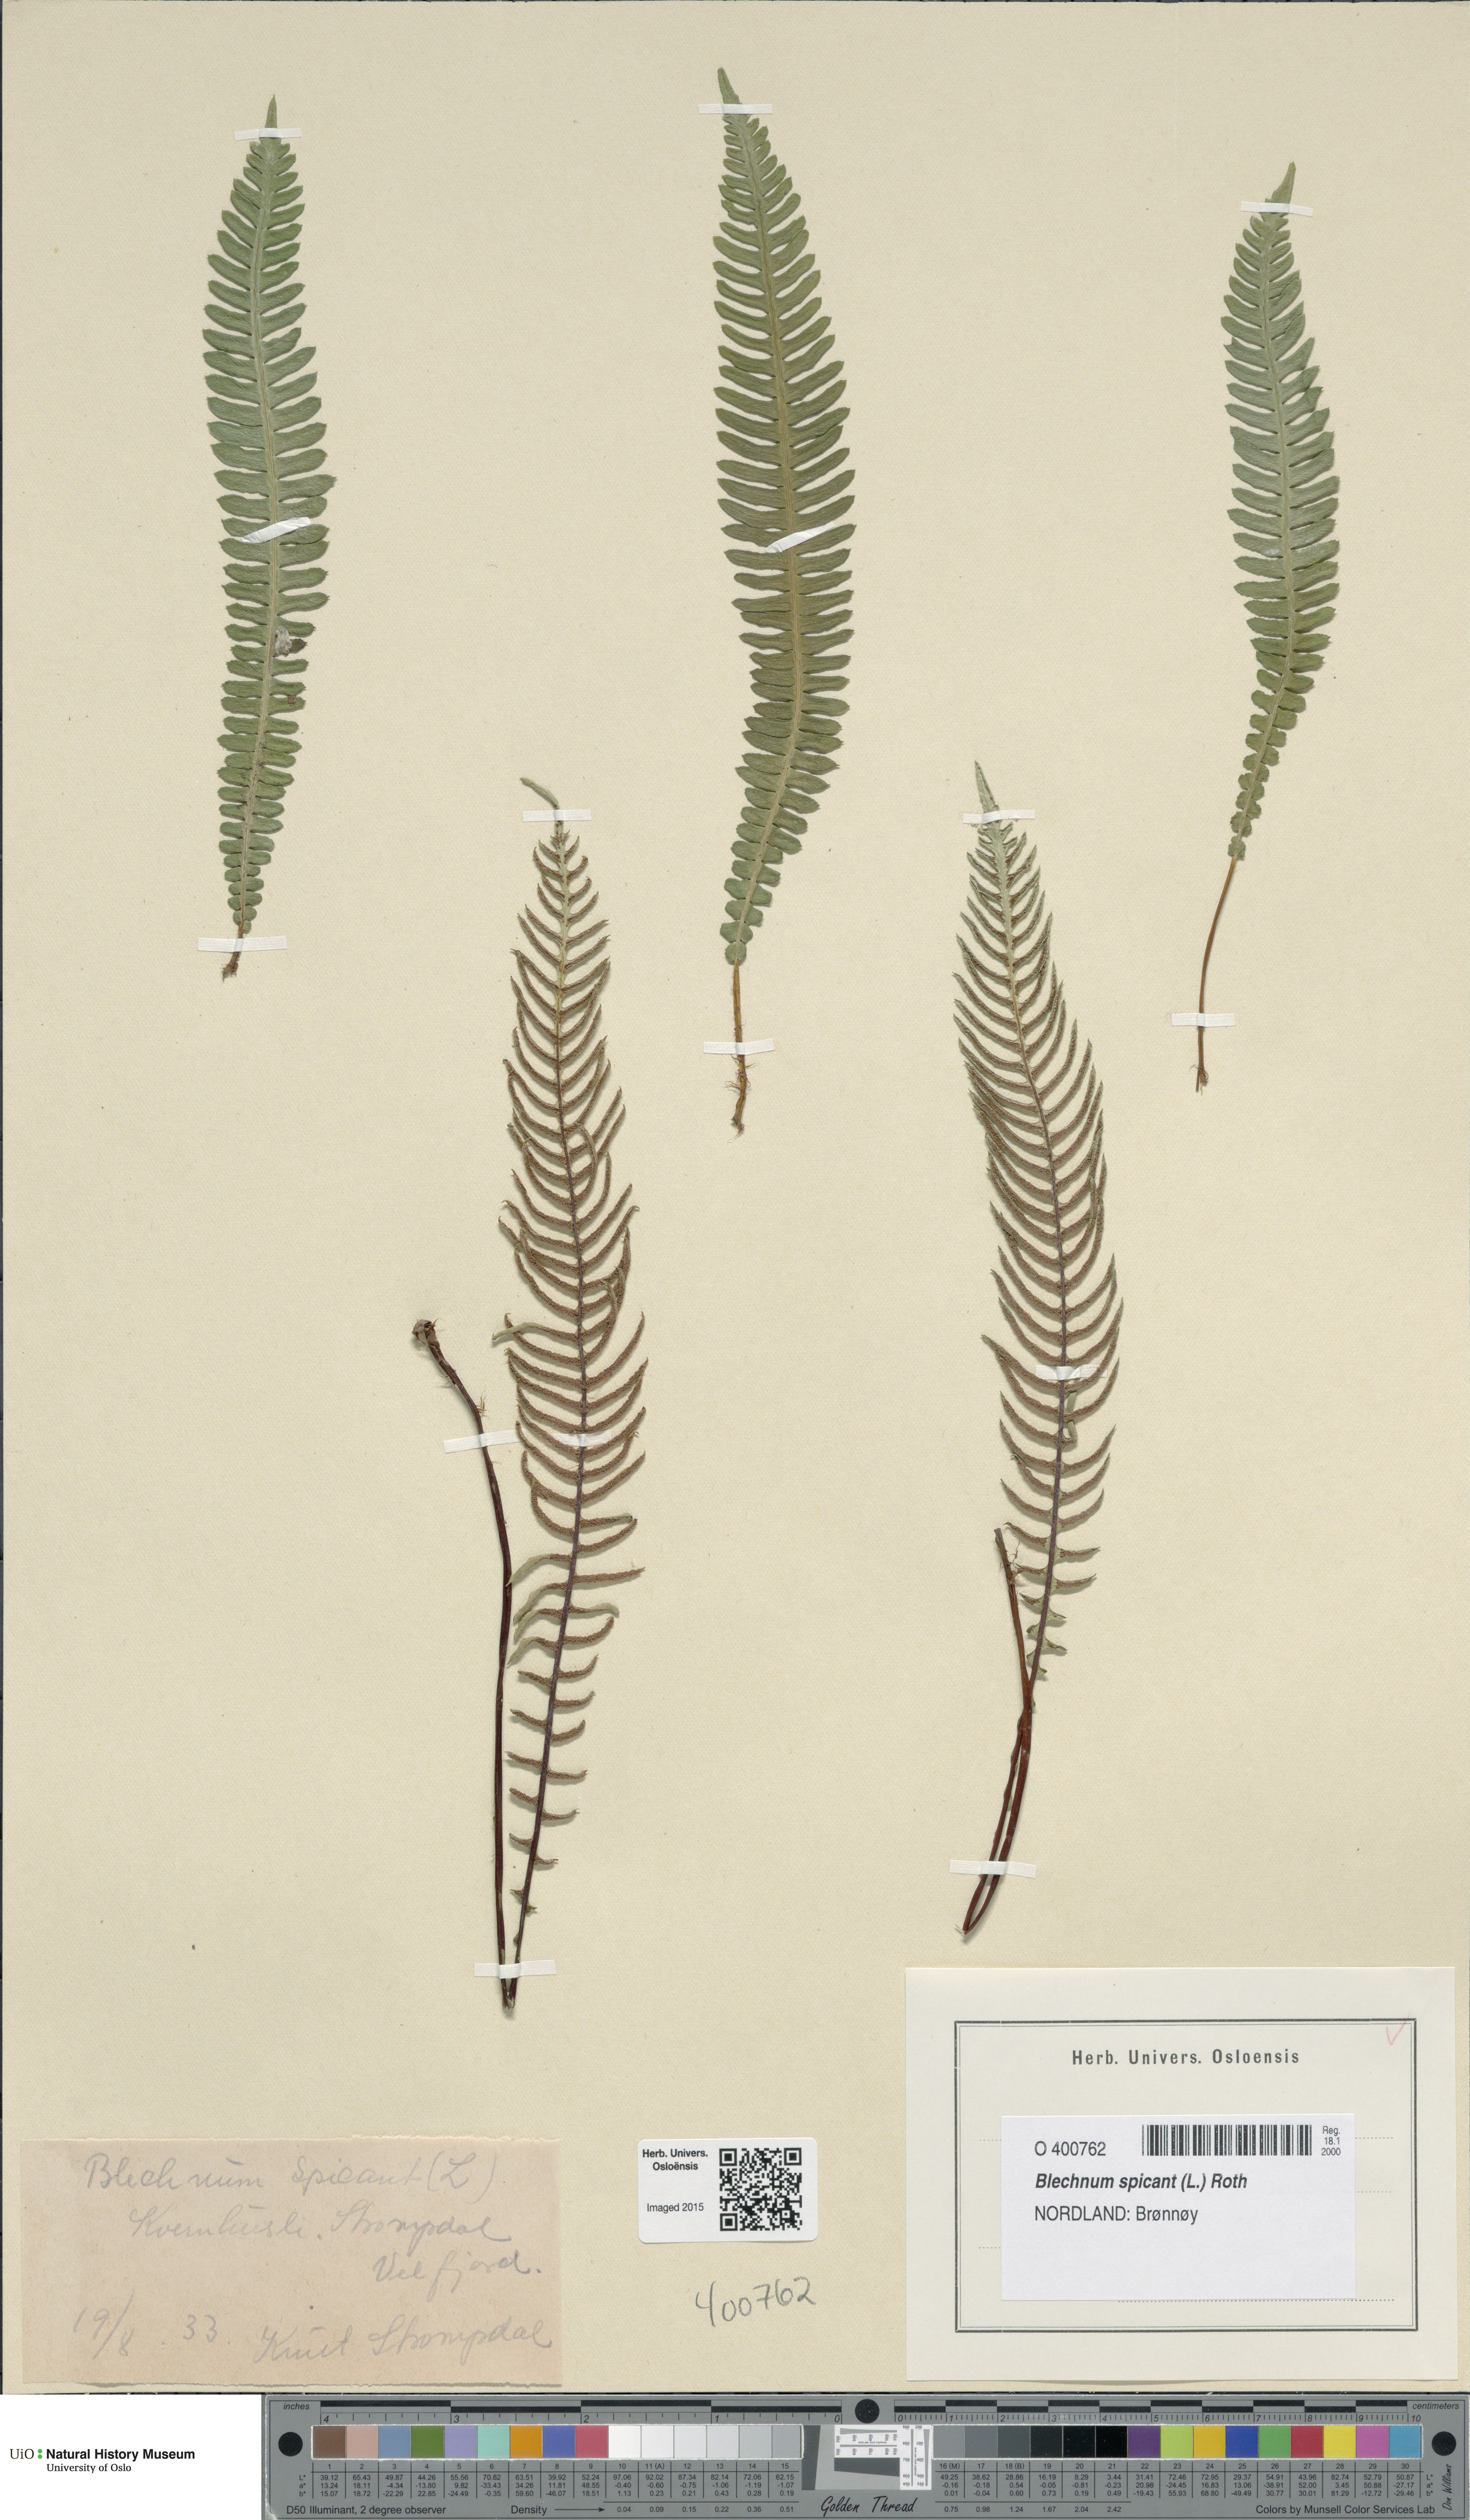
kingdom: Plantae
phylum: Tracheophyta
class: Polypodiopsida
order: Polypodiales
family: Blechnaceae
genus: Struthiopteris
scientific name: Struthiopteris spicant
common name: Deer fern
